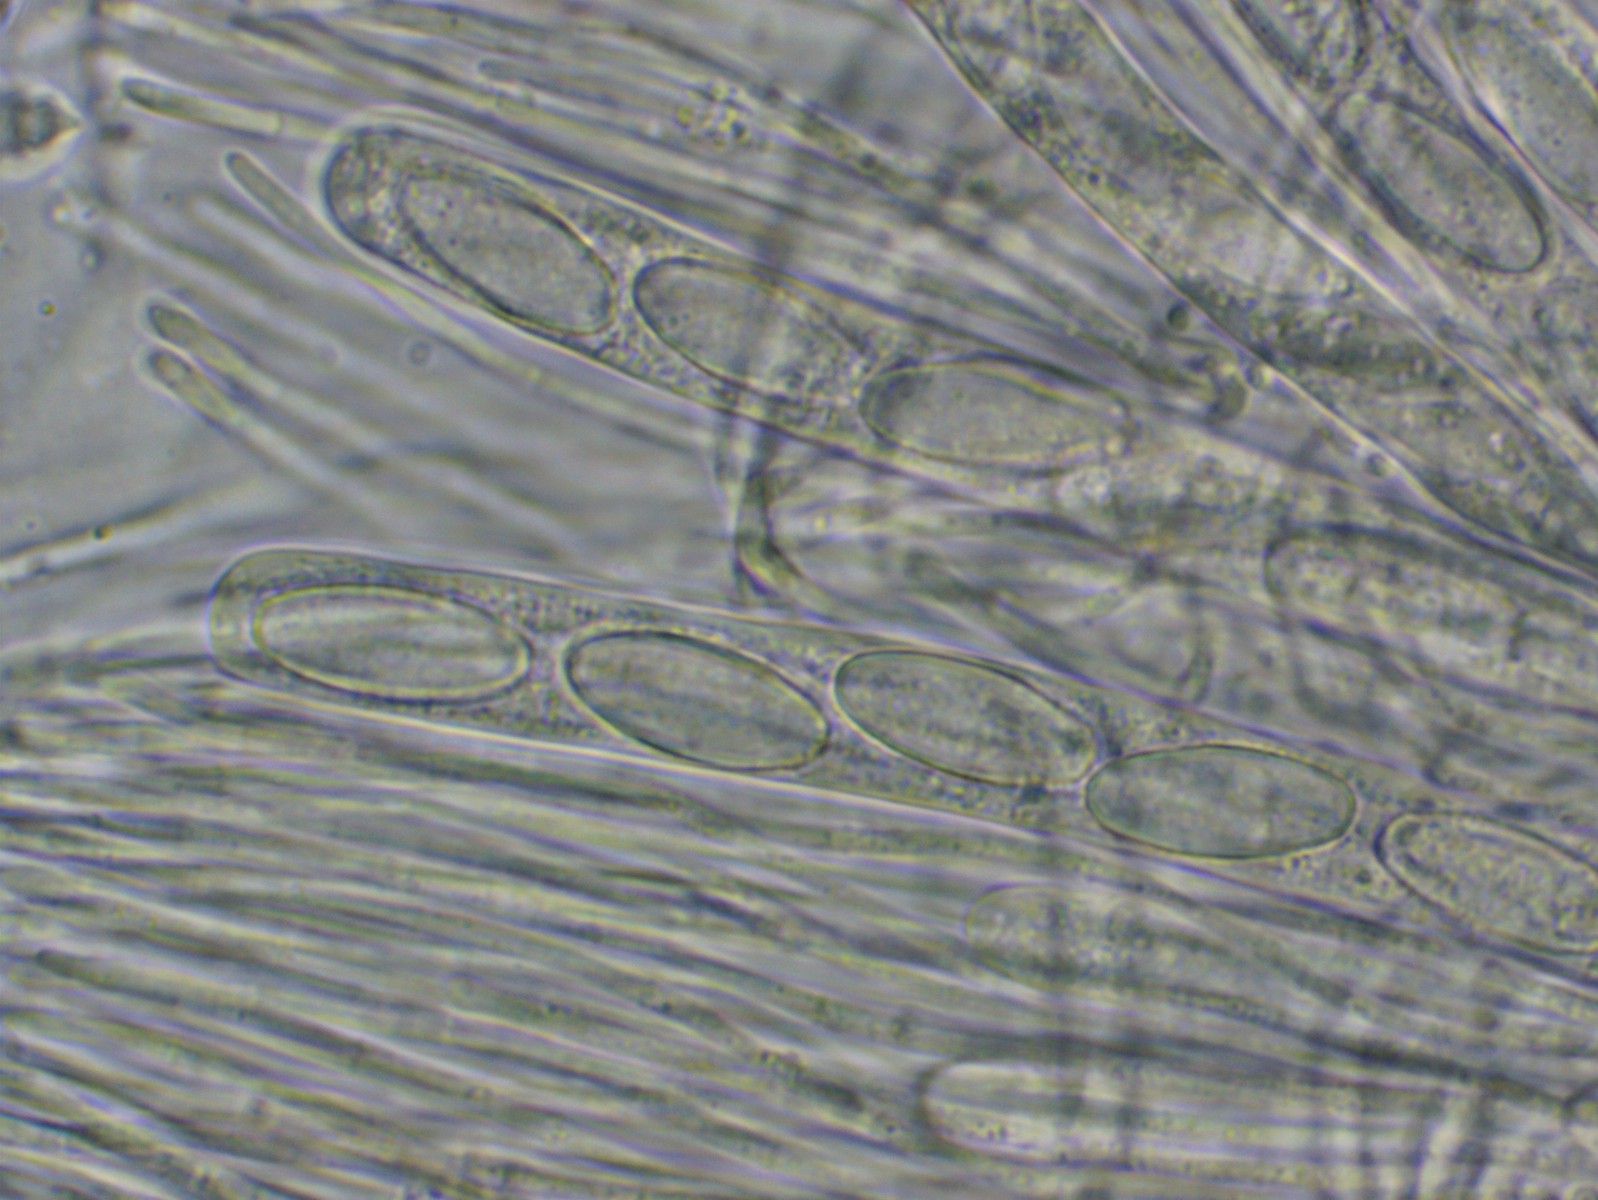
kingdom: Fungi
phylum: Ascomycota
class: Pezizomycetes
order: Pezizales
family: Ascodesmidaceae
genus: Lasiobolus
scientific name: Lasiobolus
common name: øjebæger
